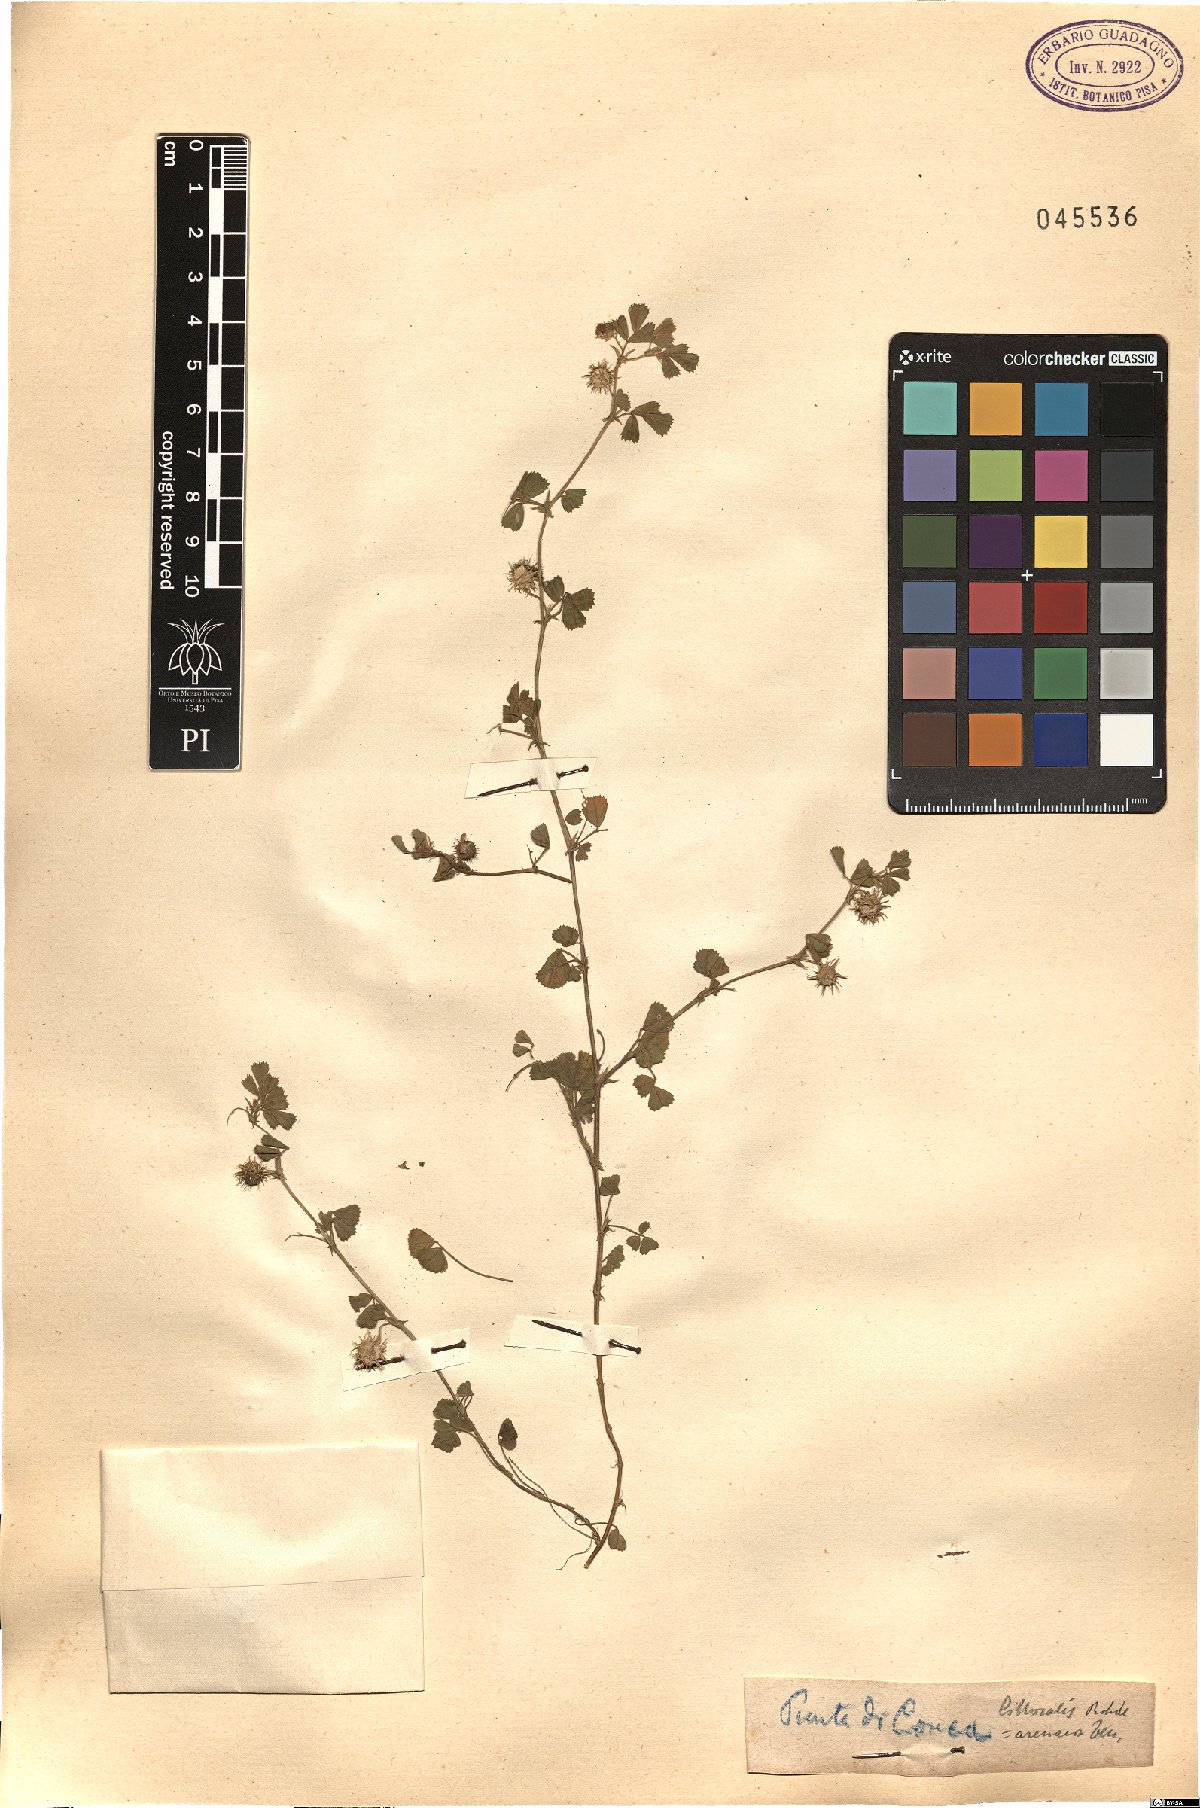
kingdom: Plantae
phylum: Tracheophyta
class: Magnoliopsida
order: Fabales
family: Fabaceae
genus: Medicago
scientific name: Medicago littoralis
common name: Shore medick
